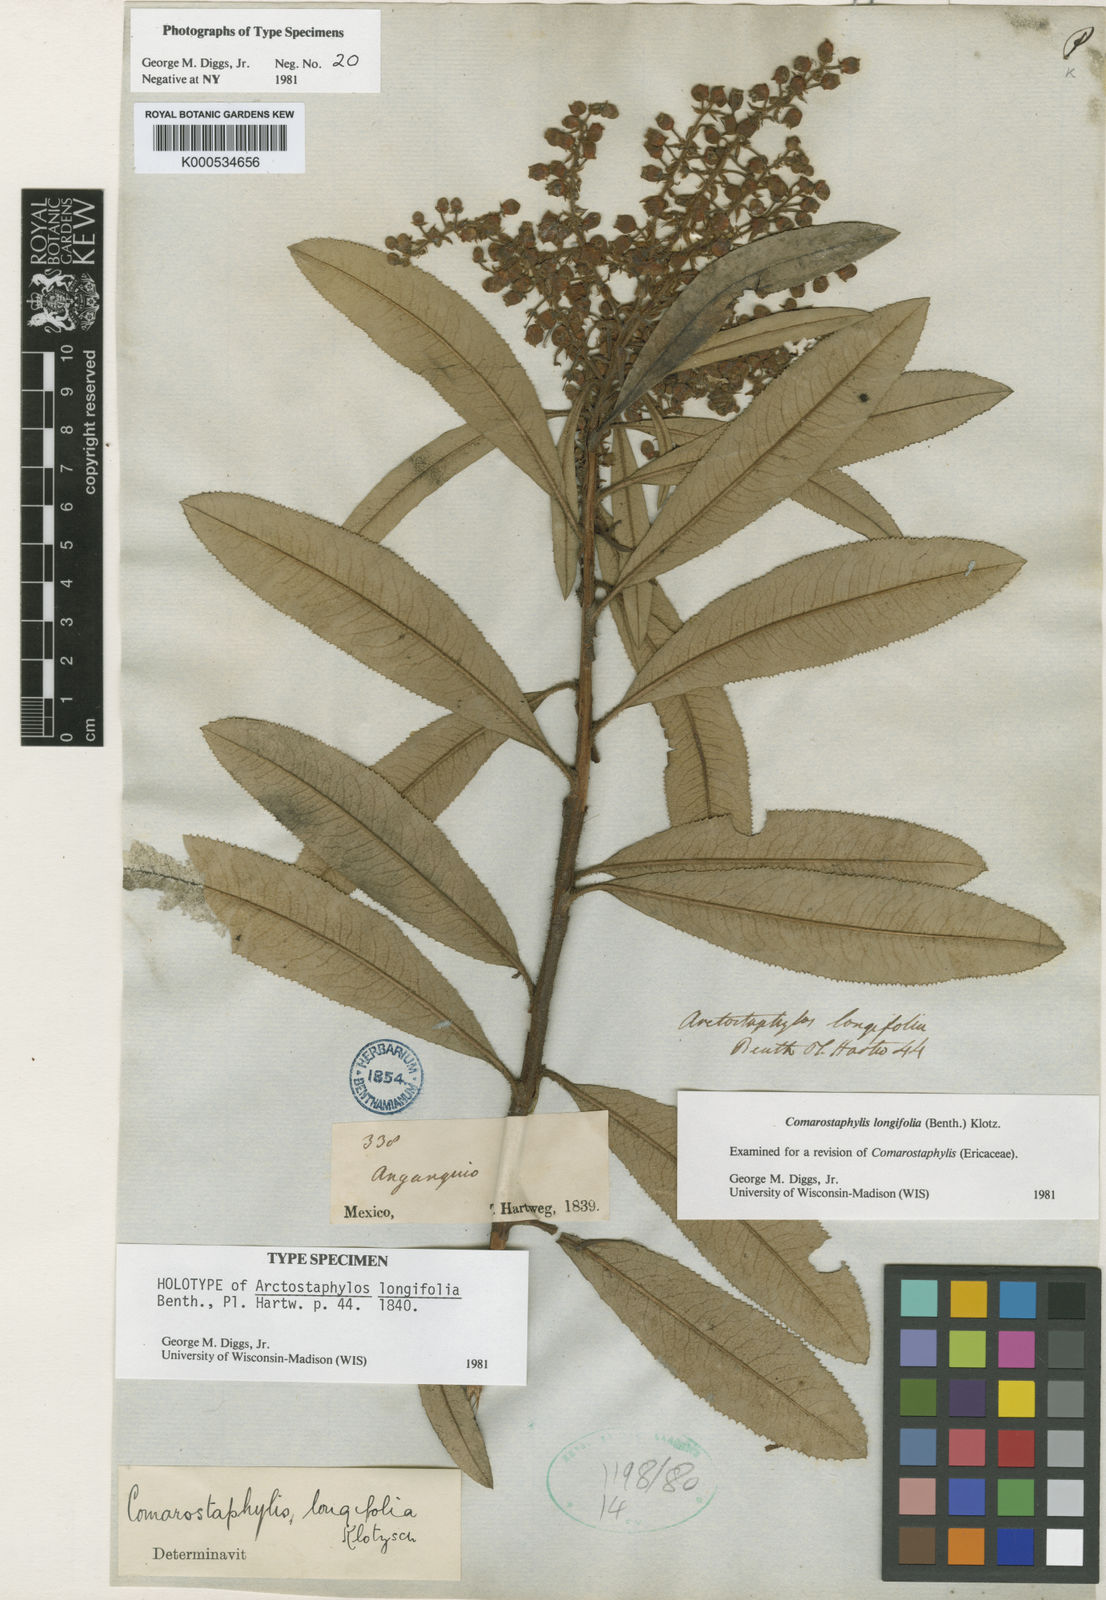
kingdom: Plantae
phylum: Tracheophyta
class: Magnoliopsida
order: Ericales
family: Ericaceae
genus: Comarostaphylis
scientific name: Comarostaphylis longifolia
